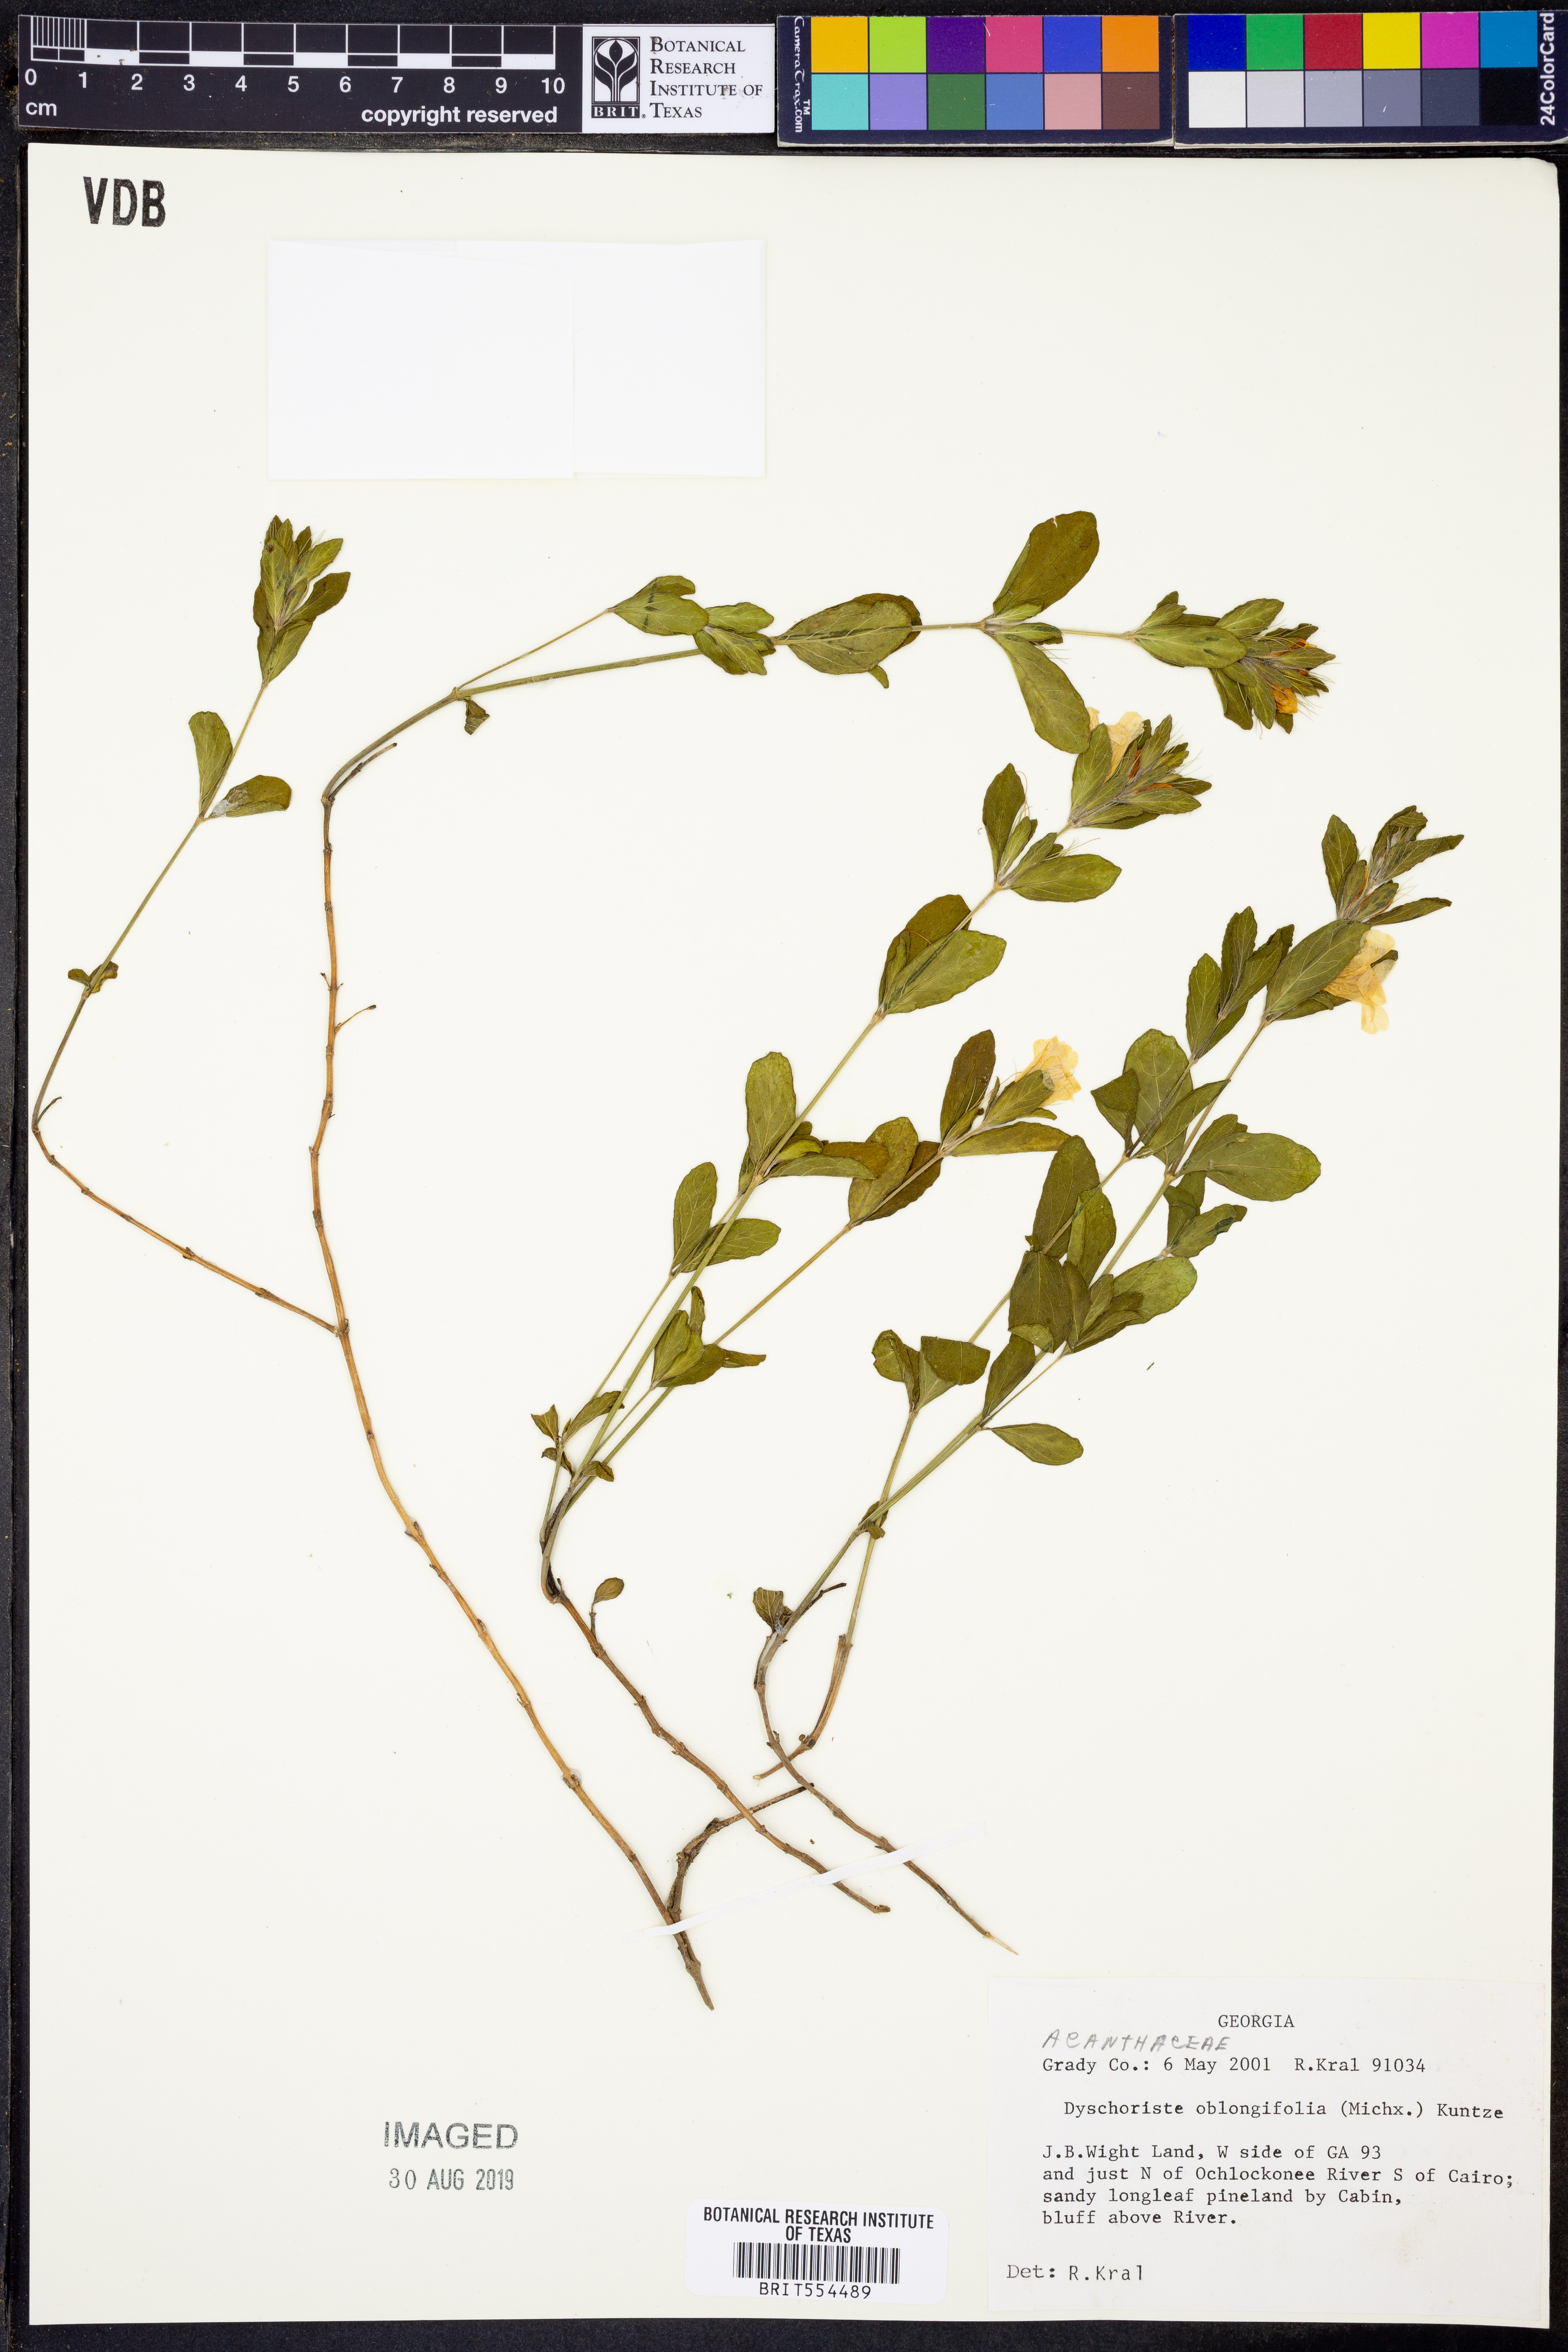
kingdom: Plantae
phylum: Tracheophyta
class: Magnoliopsida
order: Lamiales
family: Acanthaceae
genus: Dyschoriste
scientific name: Dyschoriste oblongifolia
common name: Blue twinflower
